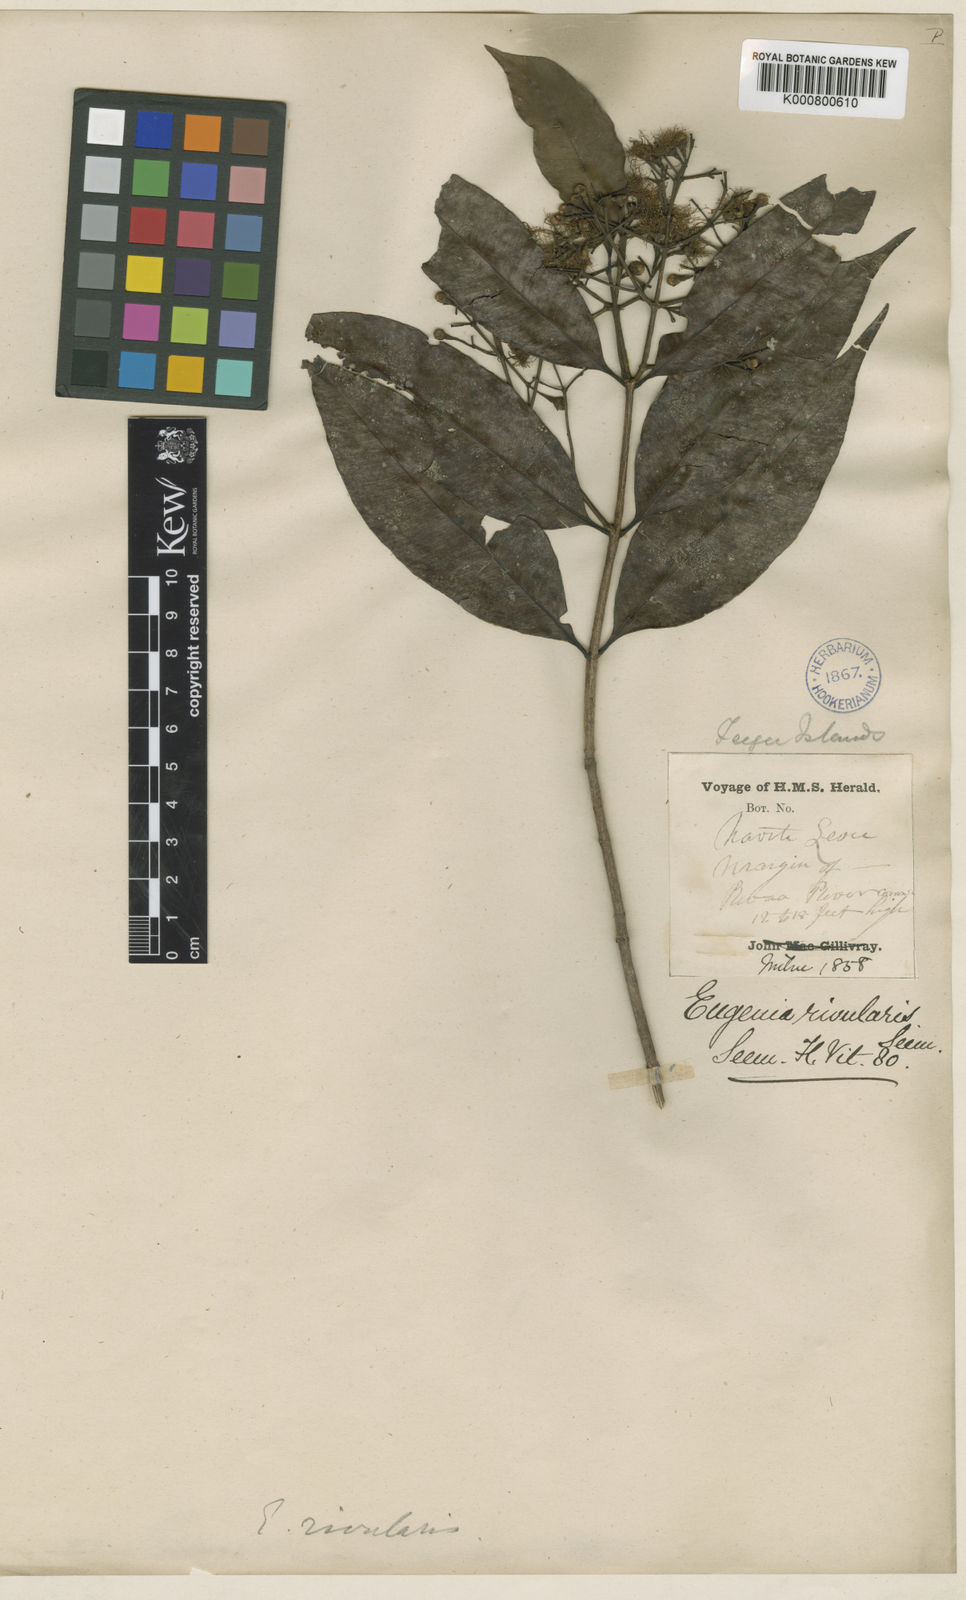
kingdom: Plantae
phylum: Tracheophyta
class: Magnoliopsida
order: Myrtales
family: Myrtaceae
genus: Syzygium
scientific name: Syzygium seemannianum
